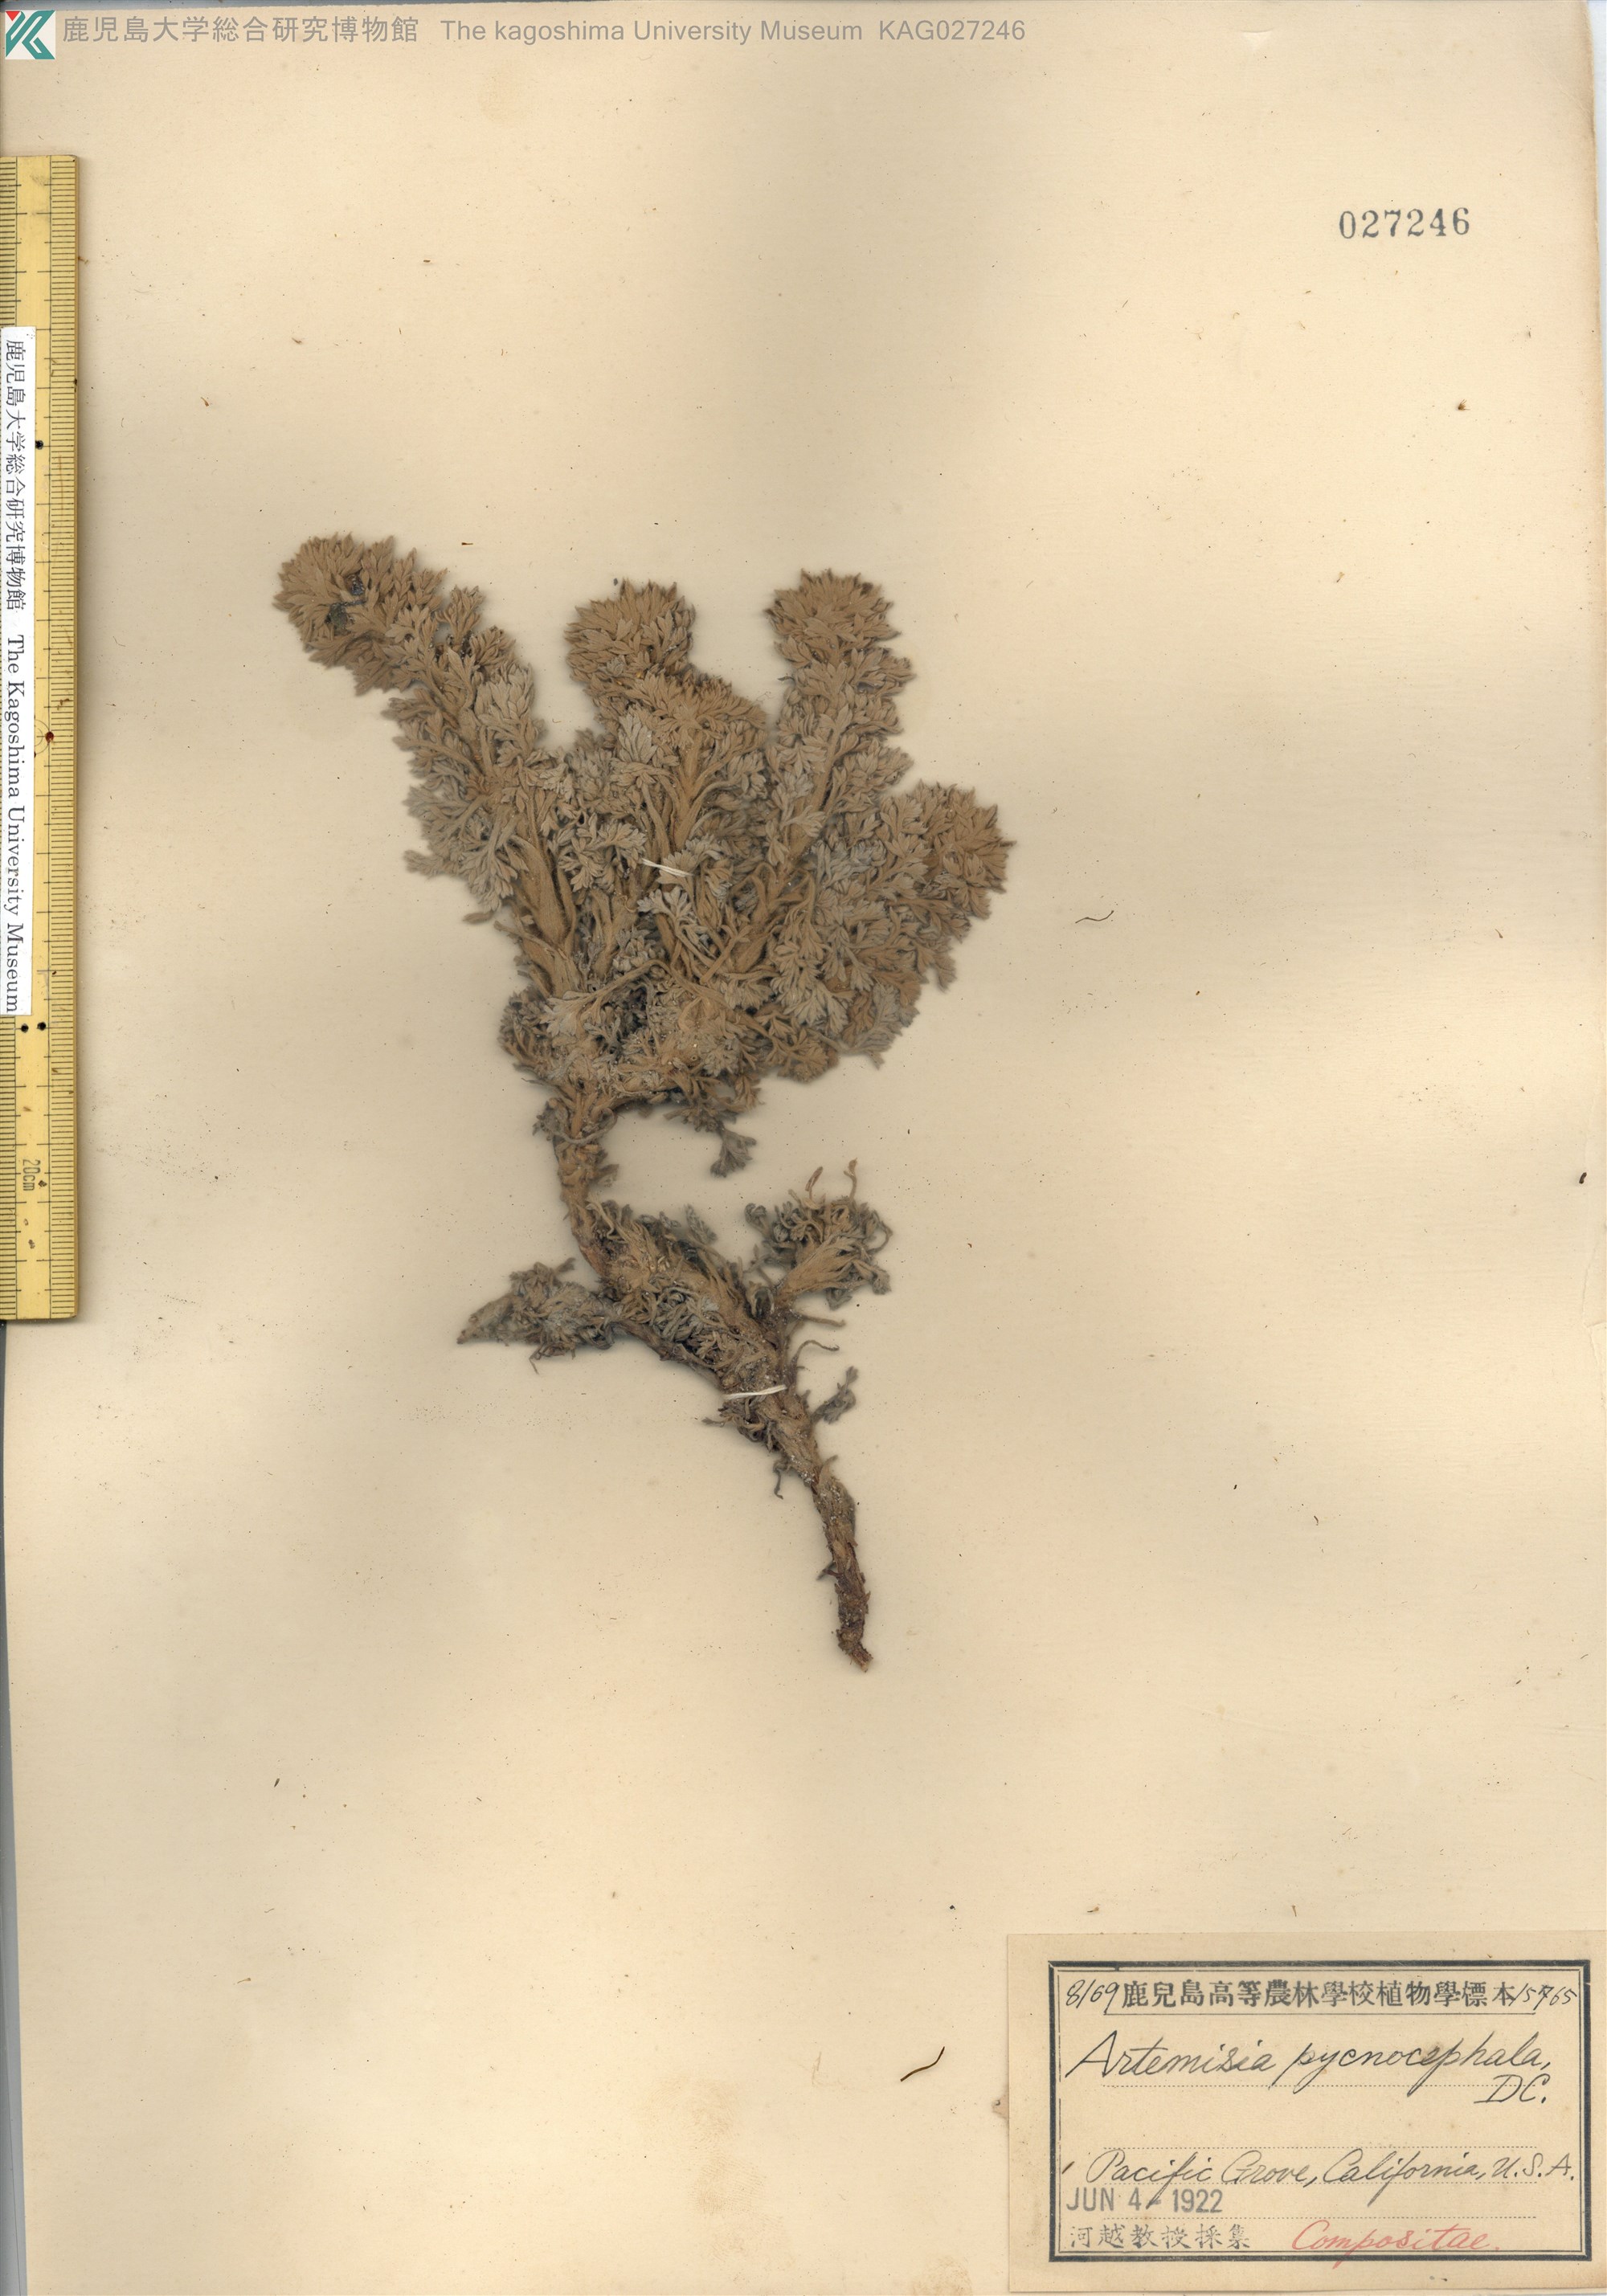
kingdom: Plantae
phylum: Tracheophyta
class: Magnoliopsida
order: Asterales
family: Asteraceae
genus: Artemisia
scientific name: Artemisia pycnocephala
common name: Coastal sagewort
